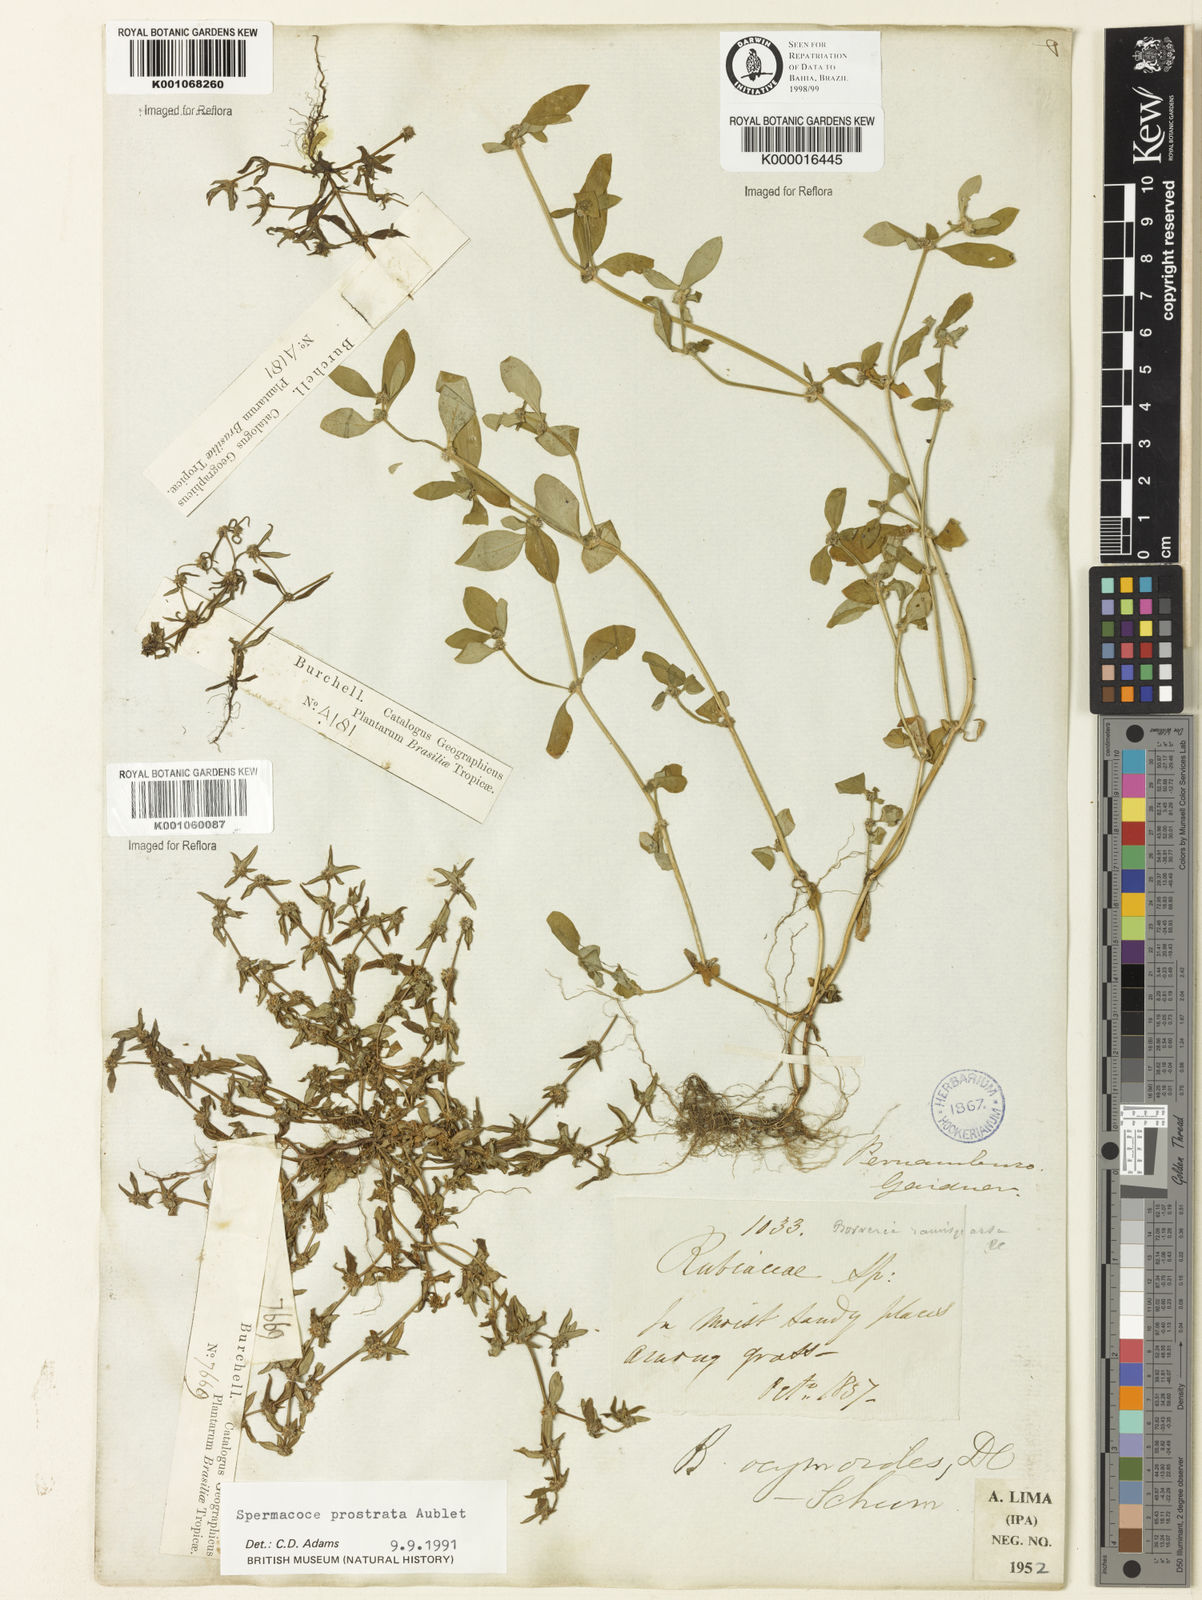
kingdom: Plantae
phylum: Tracheophyta
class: Magnoliopsida
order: Gentianales
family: Rubiaceae
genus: Spermacoce
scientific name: Spermacoce
